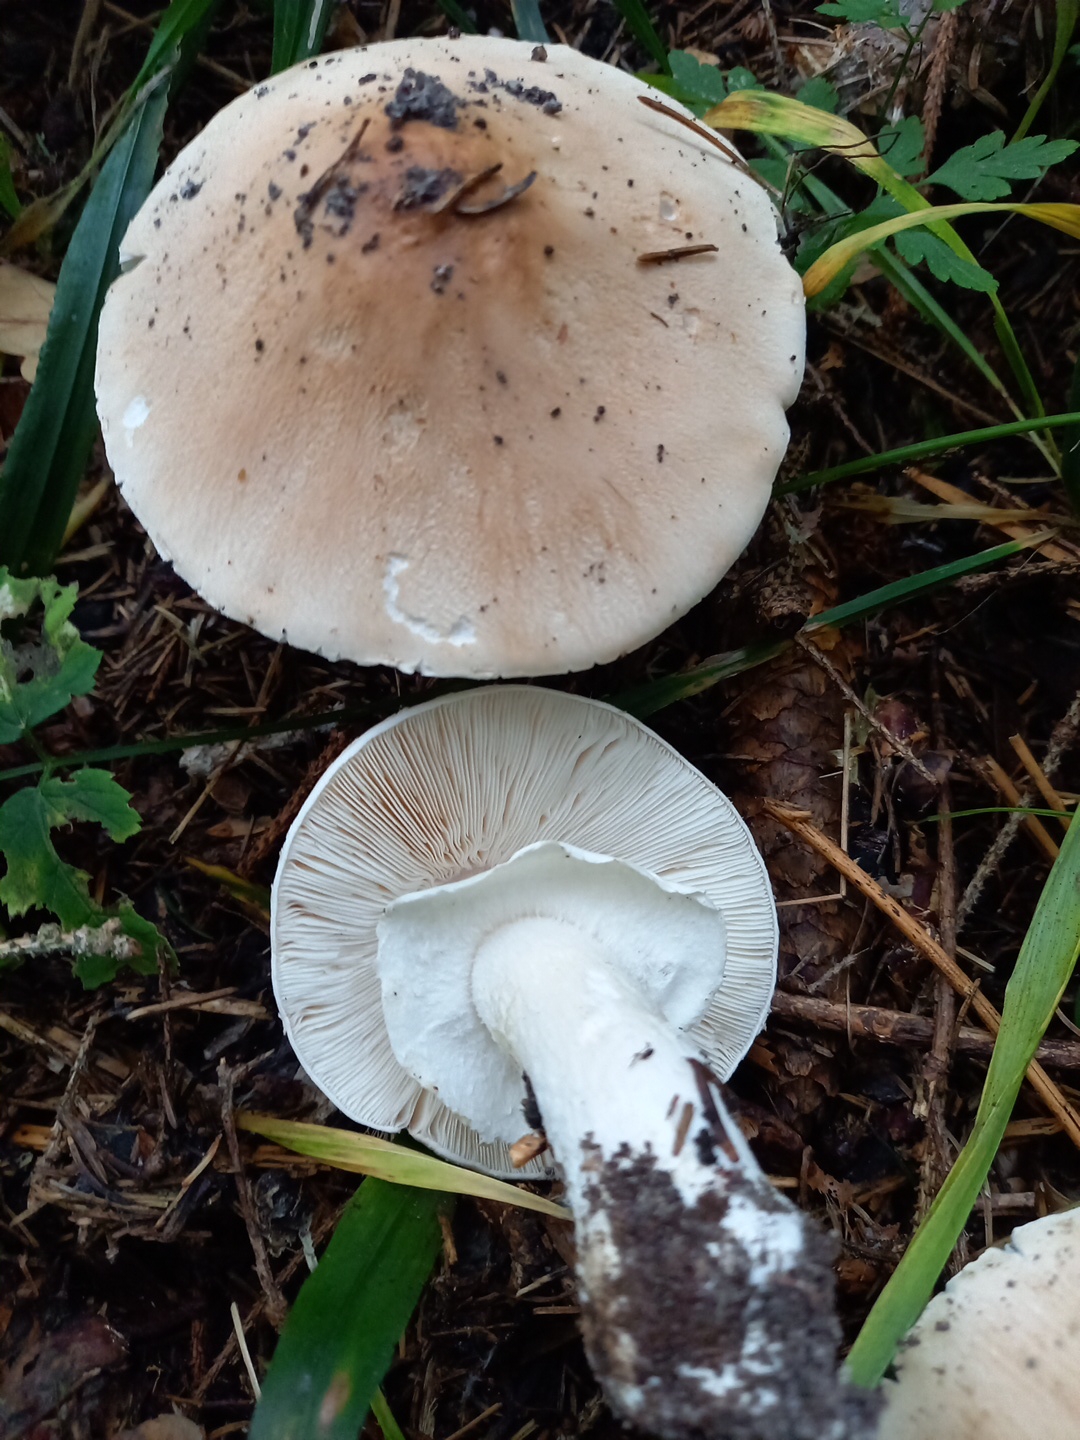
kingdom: Fungi
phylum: Basidiomycota
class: Agaricomycetes
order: Agaricales
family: Amanitaceae
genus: Limacellopsis
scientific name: Limacellopsis guttata
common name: tåre-snekkehat
